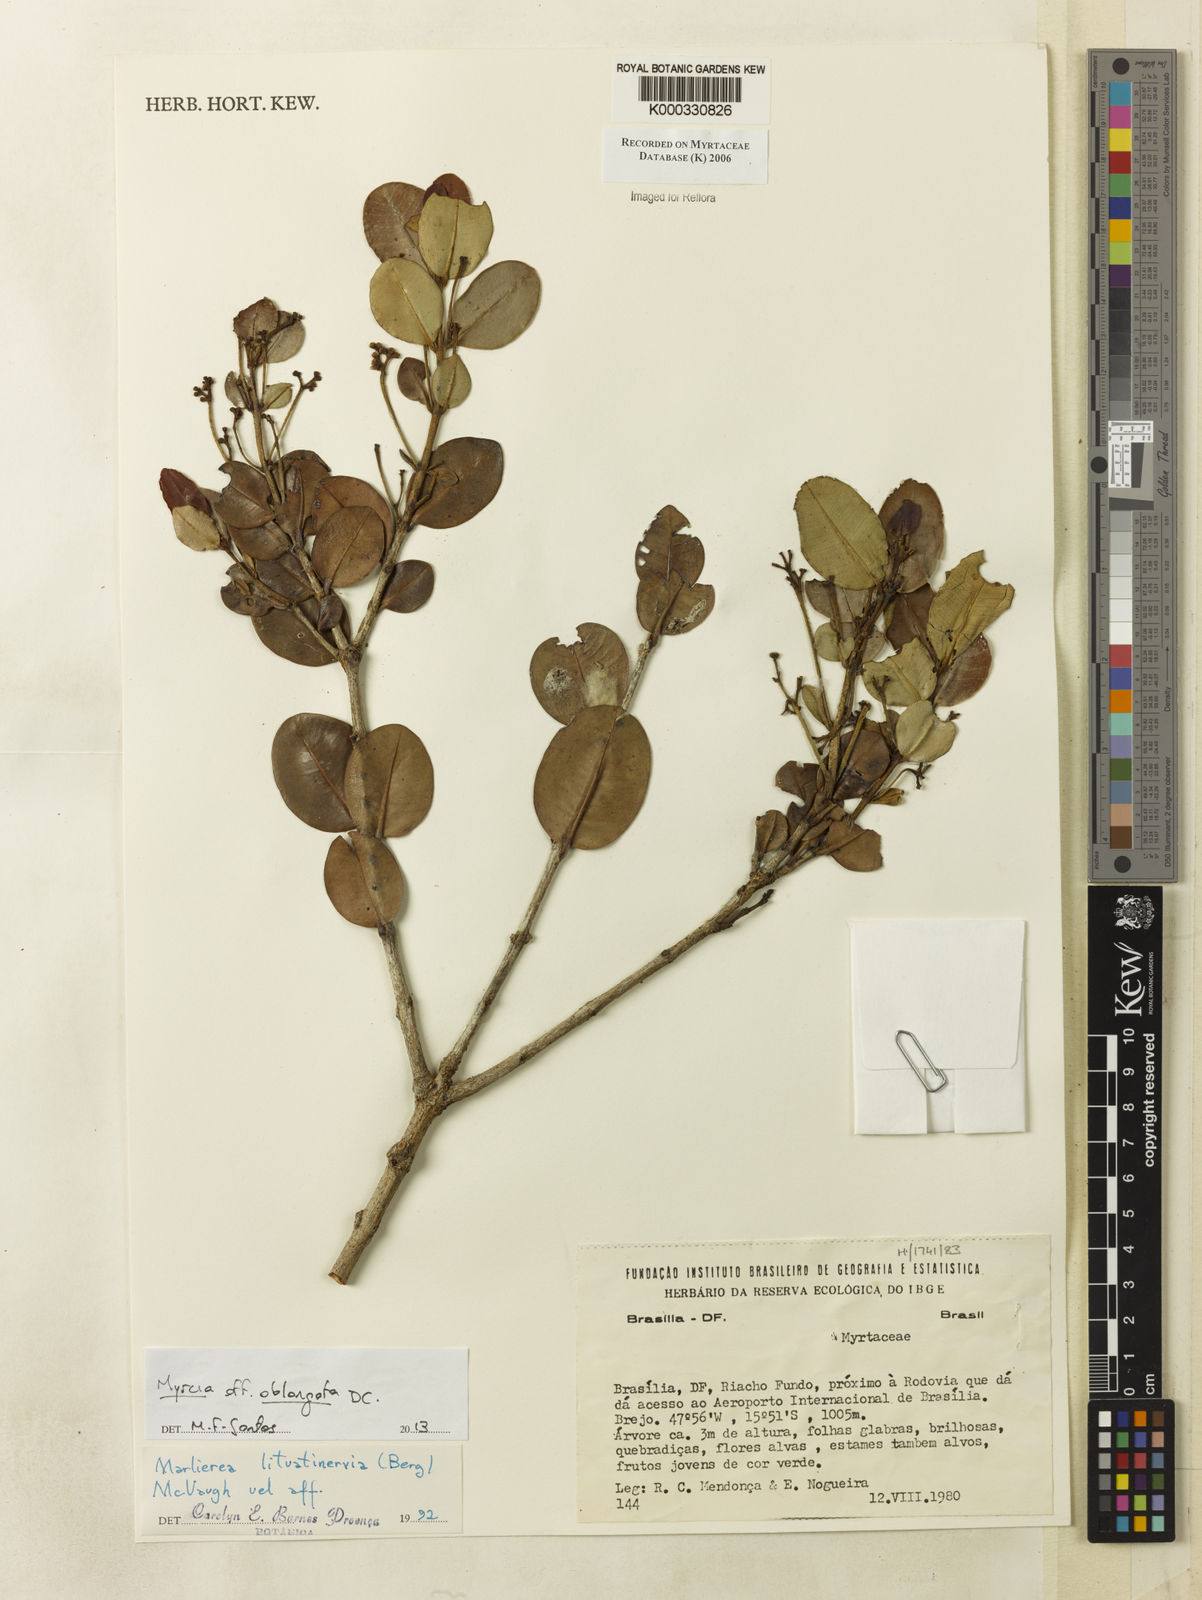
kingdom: Plantae
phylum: Tracheophyta
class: Magnoliopsida
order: Myrtales
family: Myrtaceae
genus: Myrcia
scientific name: Myrcia lituatinervia
